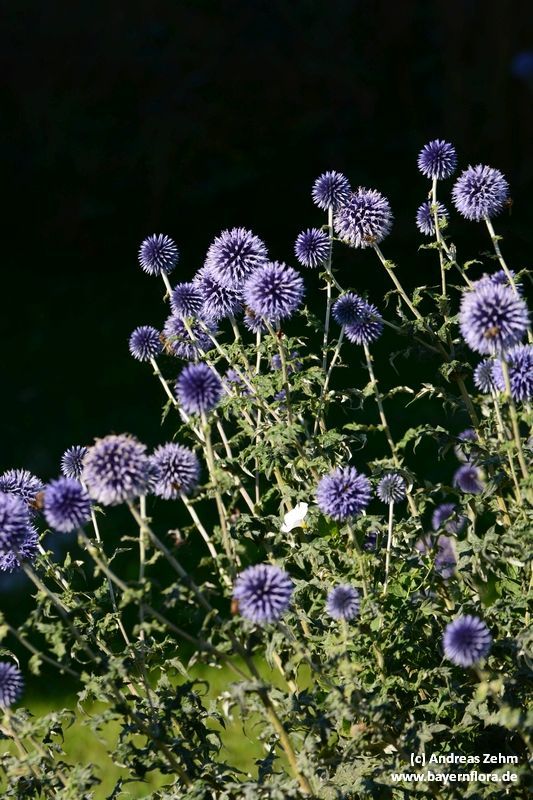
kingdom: Plantae
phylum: Tracheophyta
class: Magnoliopsida
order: Asterales
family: Asteraceae
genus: Echinops
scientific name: Echinops bannaticus
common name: Blue globe-thistle
